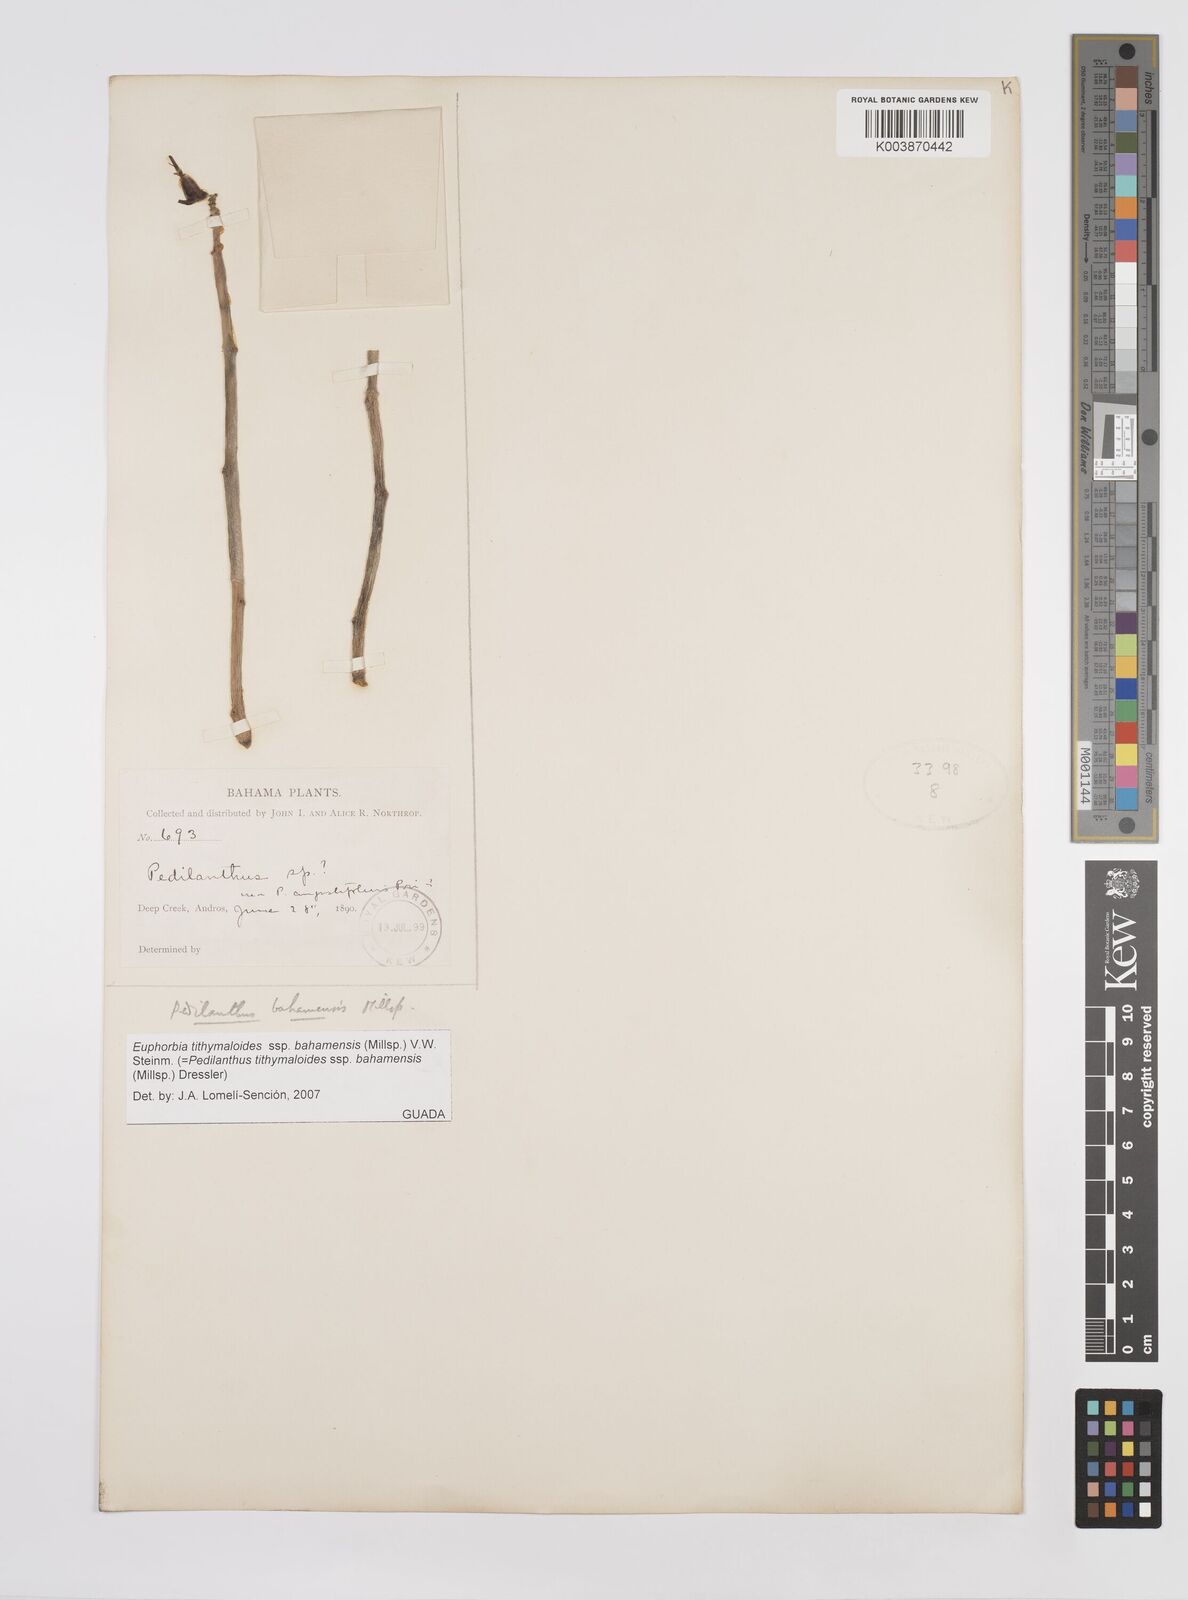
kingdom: Plantae
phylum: Tracheophyta
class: Magnoliopsida
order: Malpighiales
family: Euphorbiaceae
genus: Euphorbia
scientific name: Euphorbia tithymaloides
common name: Slipperplant
